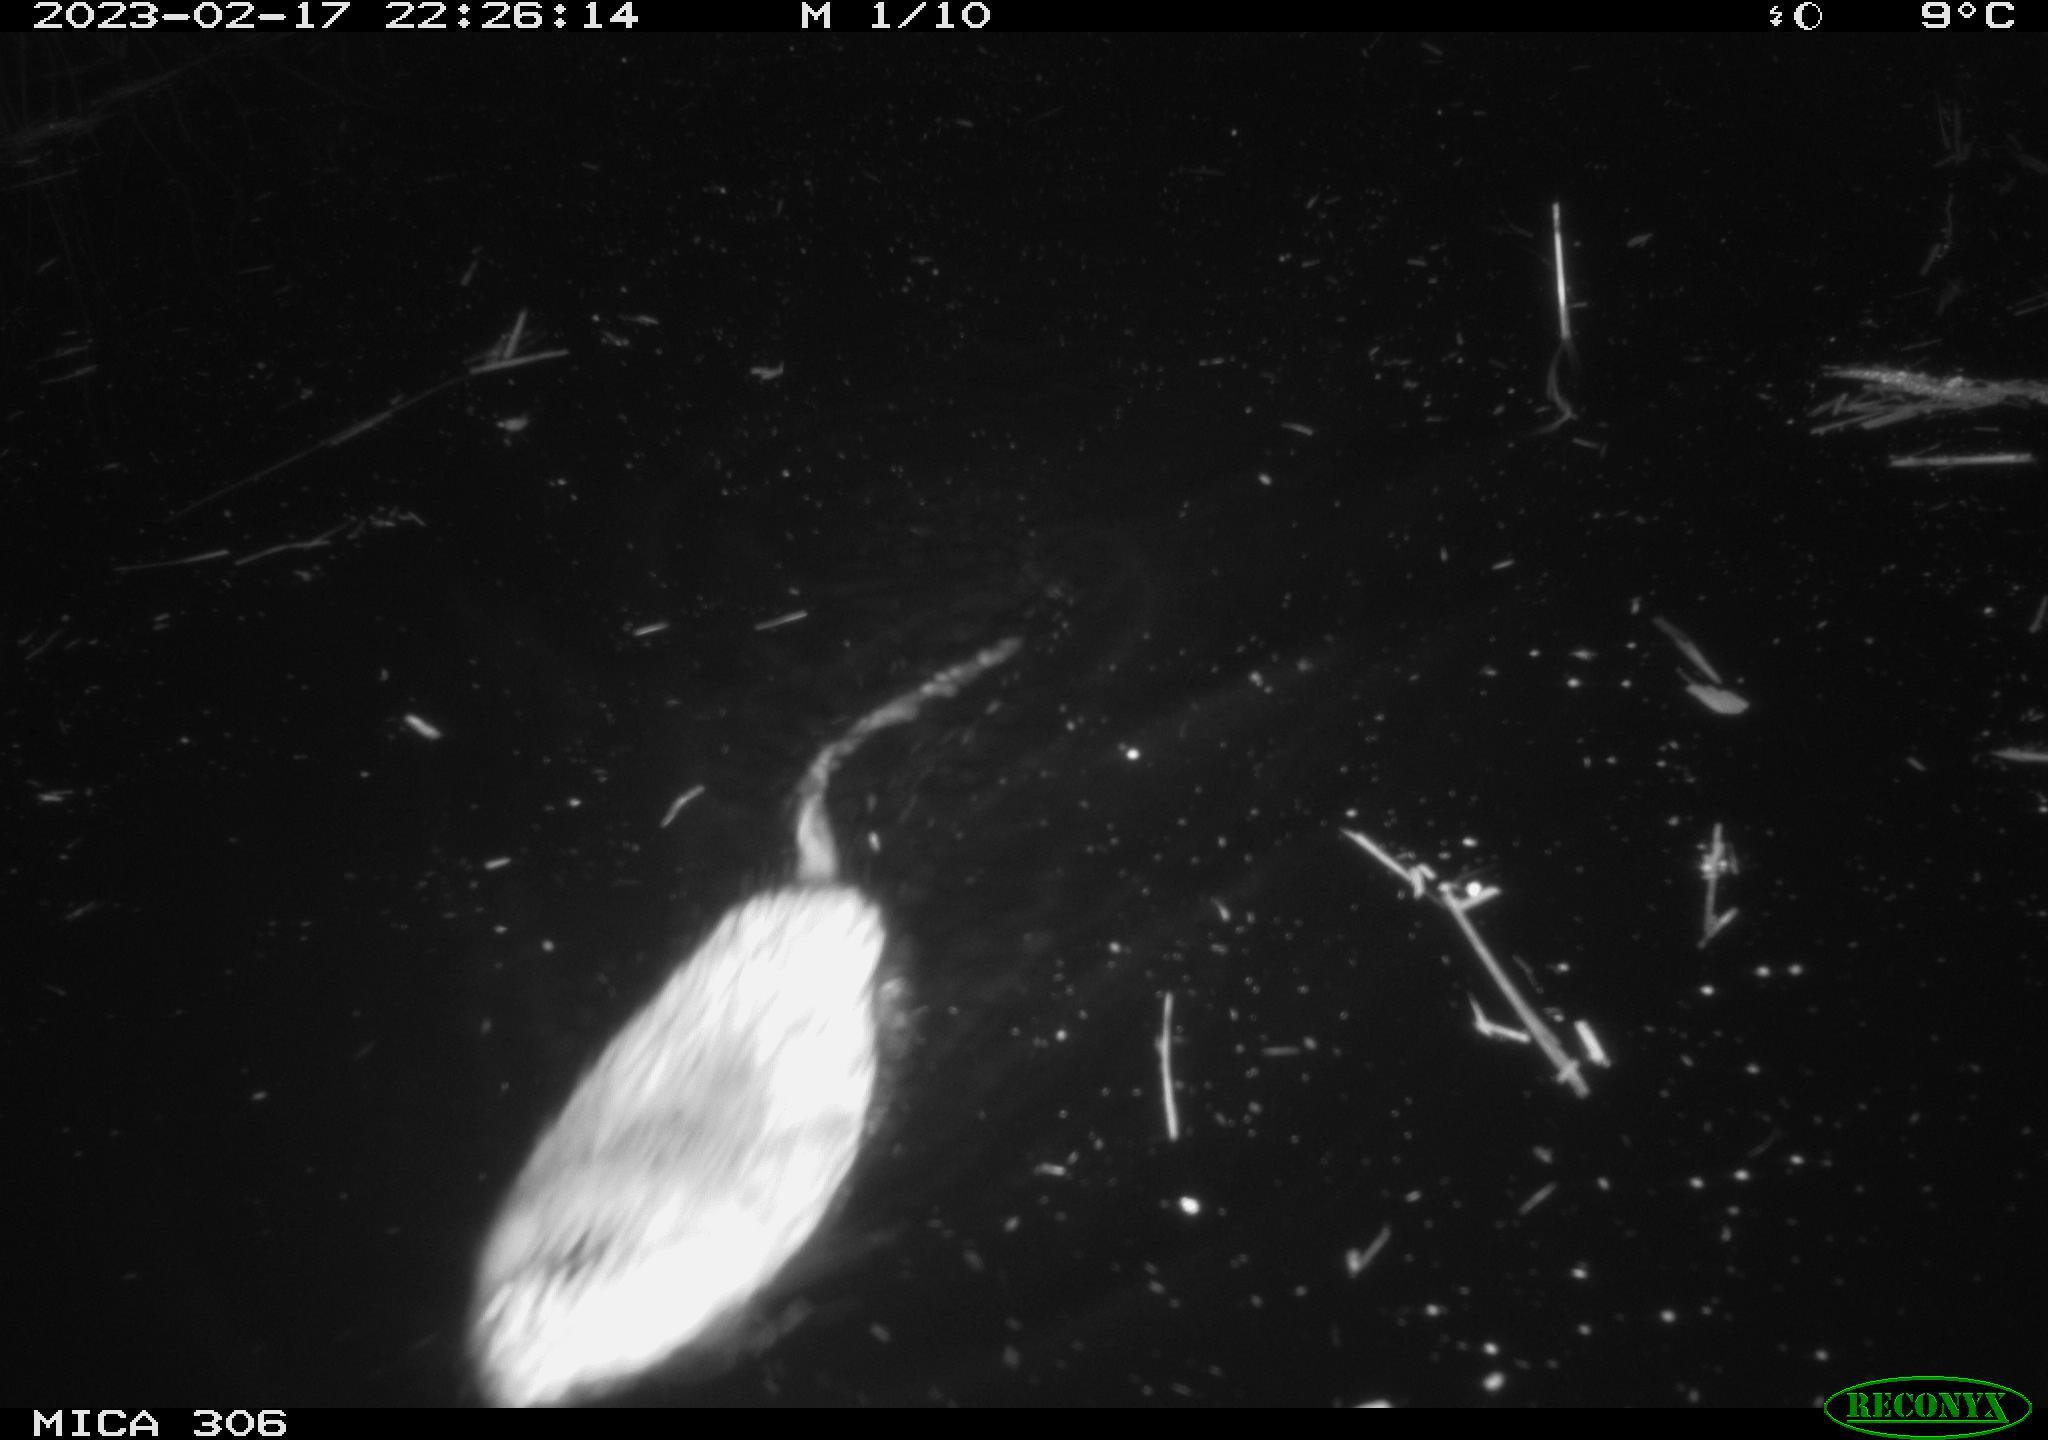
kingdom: Animalia
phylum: Chordata
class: Mammalia
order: Rodentia
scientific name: Rodentia
